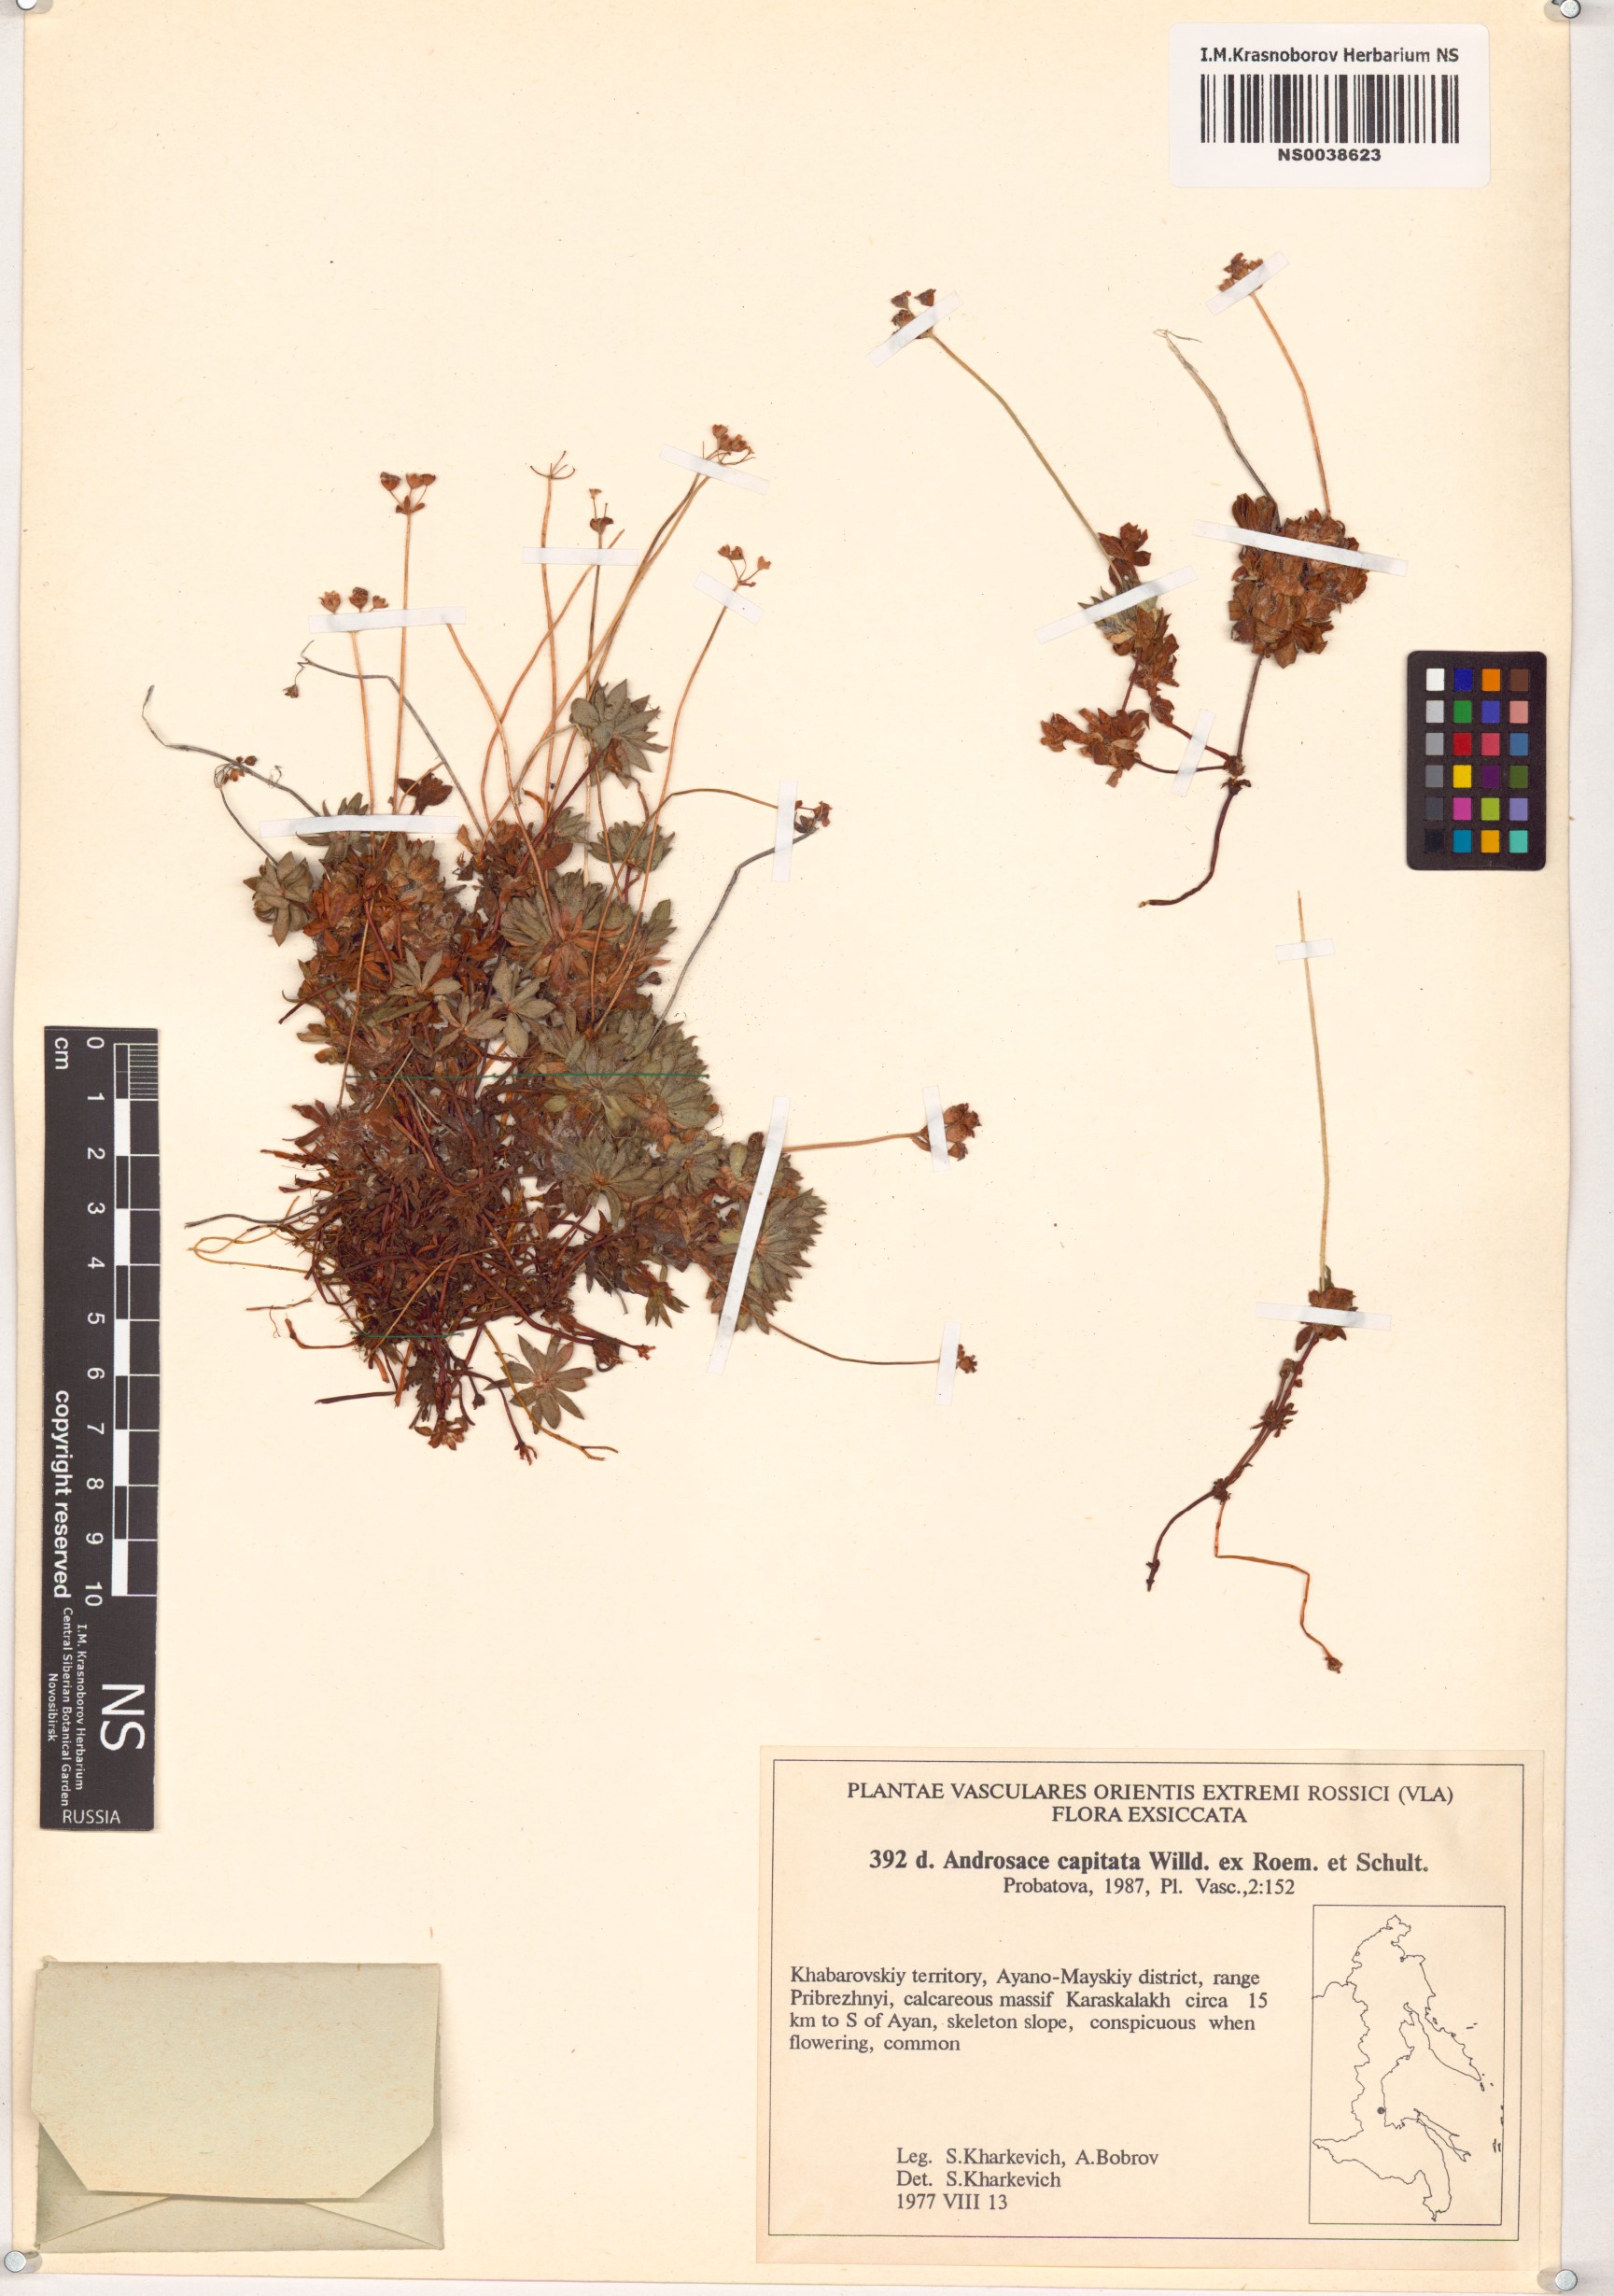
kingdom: Plantae
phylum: Tracheophyta
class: Magnoliopsida
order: Ericales
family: Primulaceae
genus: Androsace
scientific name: Androsace chamaejasme
